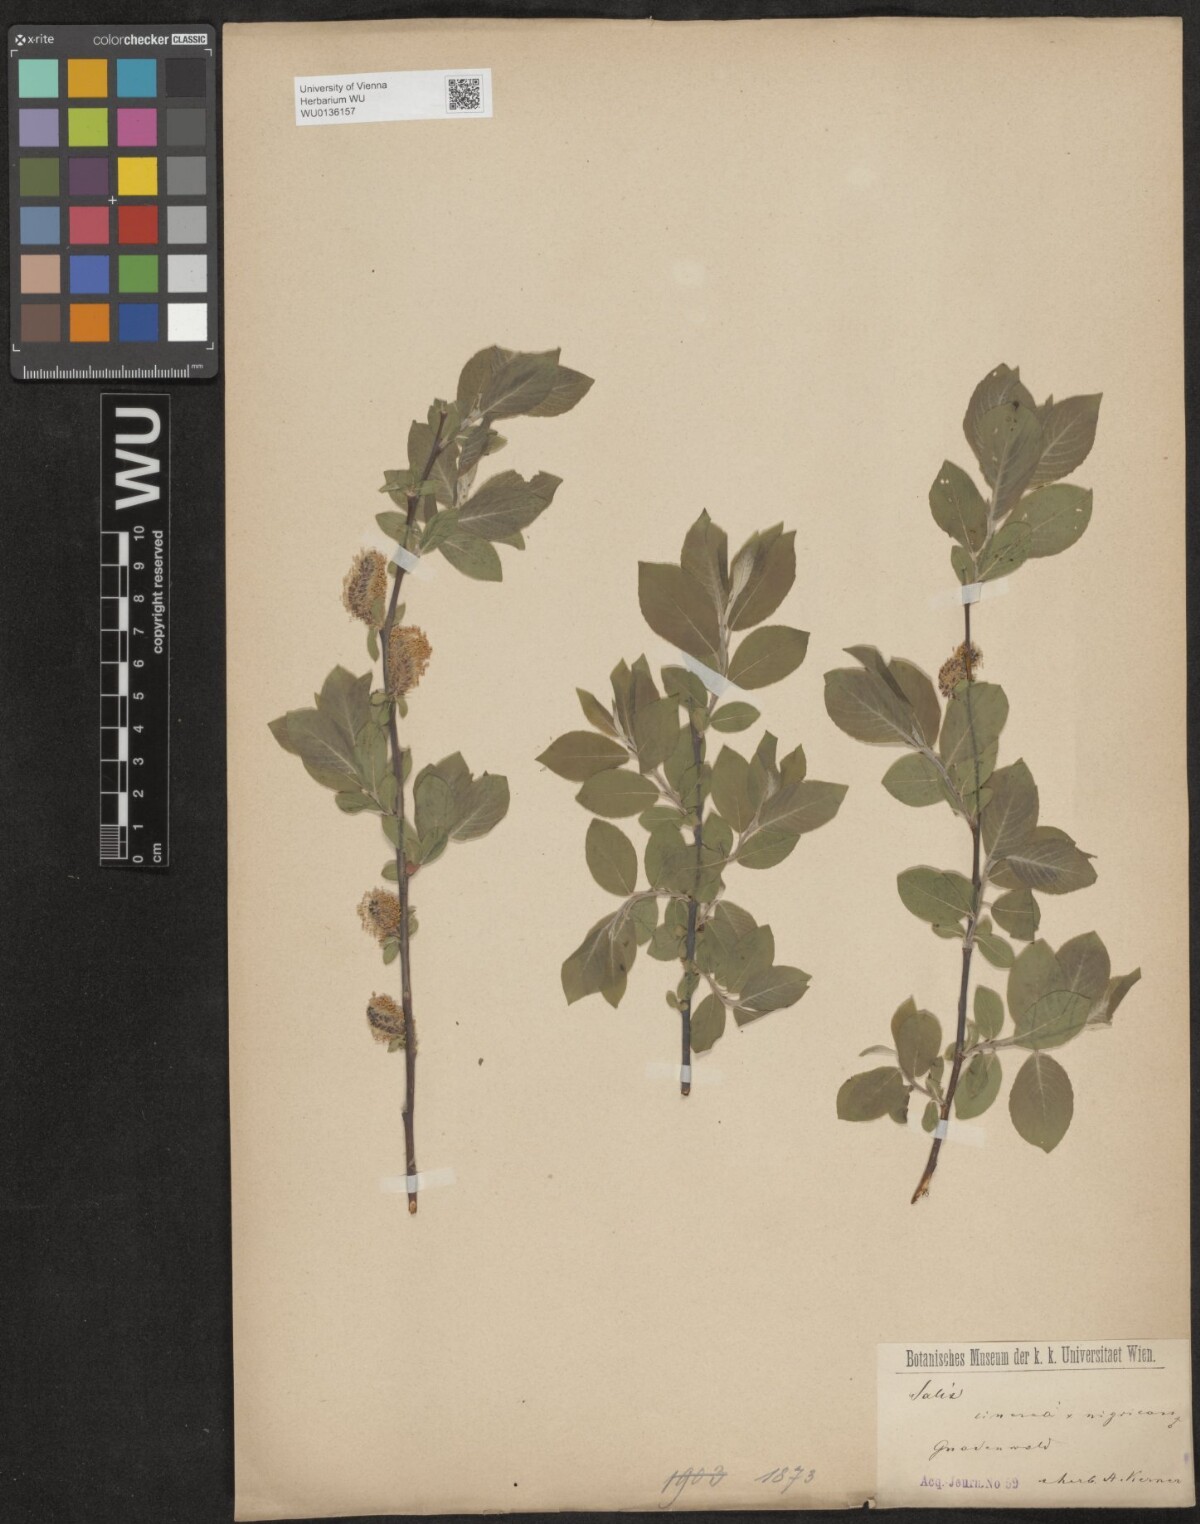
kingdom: Plantae
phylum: Tracheophyta
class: Magnoliopsida
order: Malpighiales
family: Salicaceae
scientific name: Salicaceae
